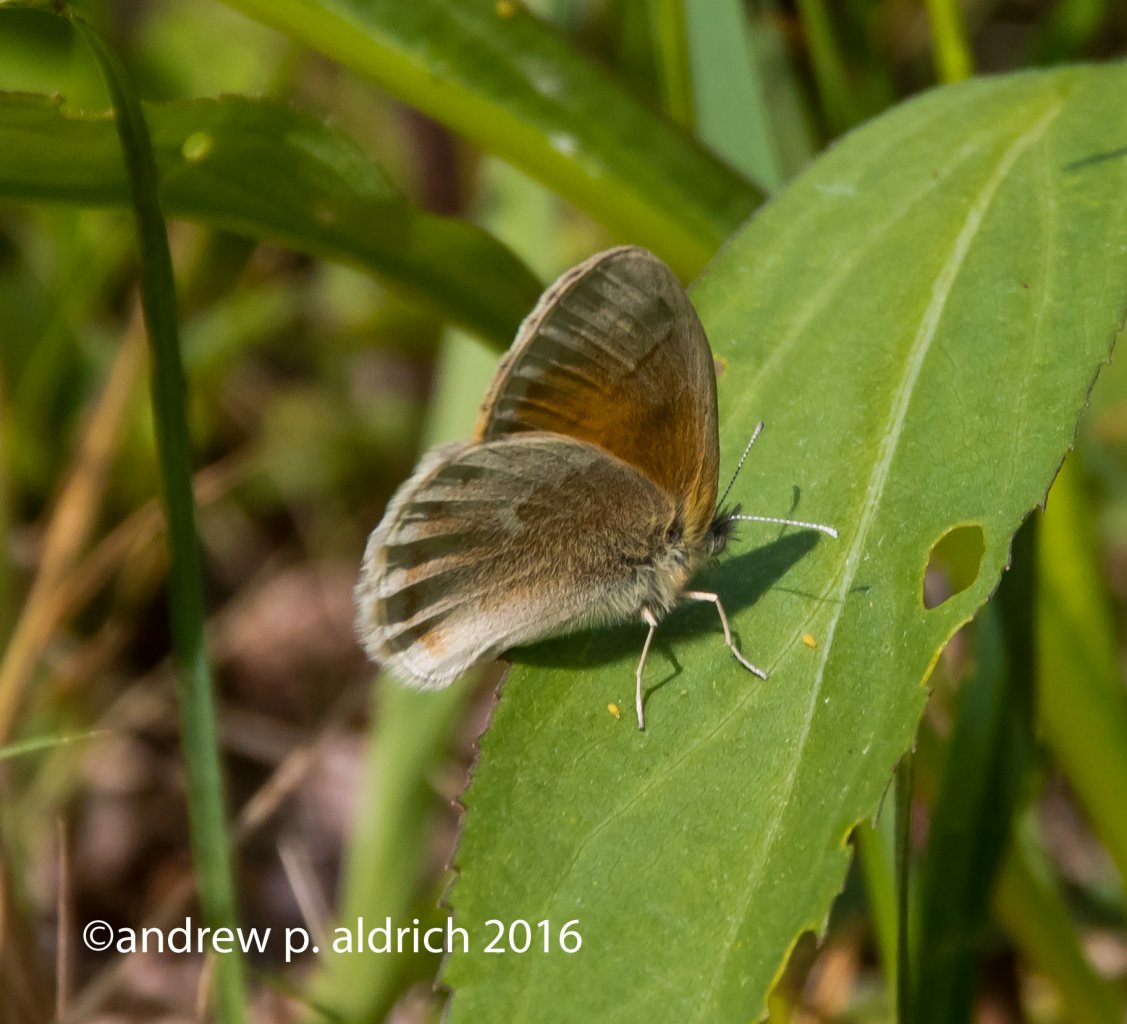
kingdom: Animalia
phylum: Arthropoda
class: Insecta
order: Lepidoptera
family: Nymphalidae
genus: Coenonympha
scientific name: Coenonympha tullia
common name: Large Heath
